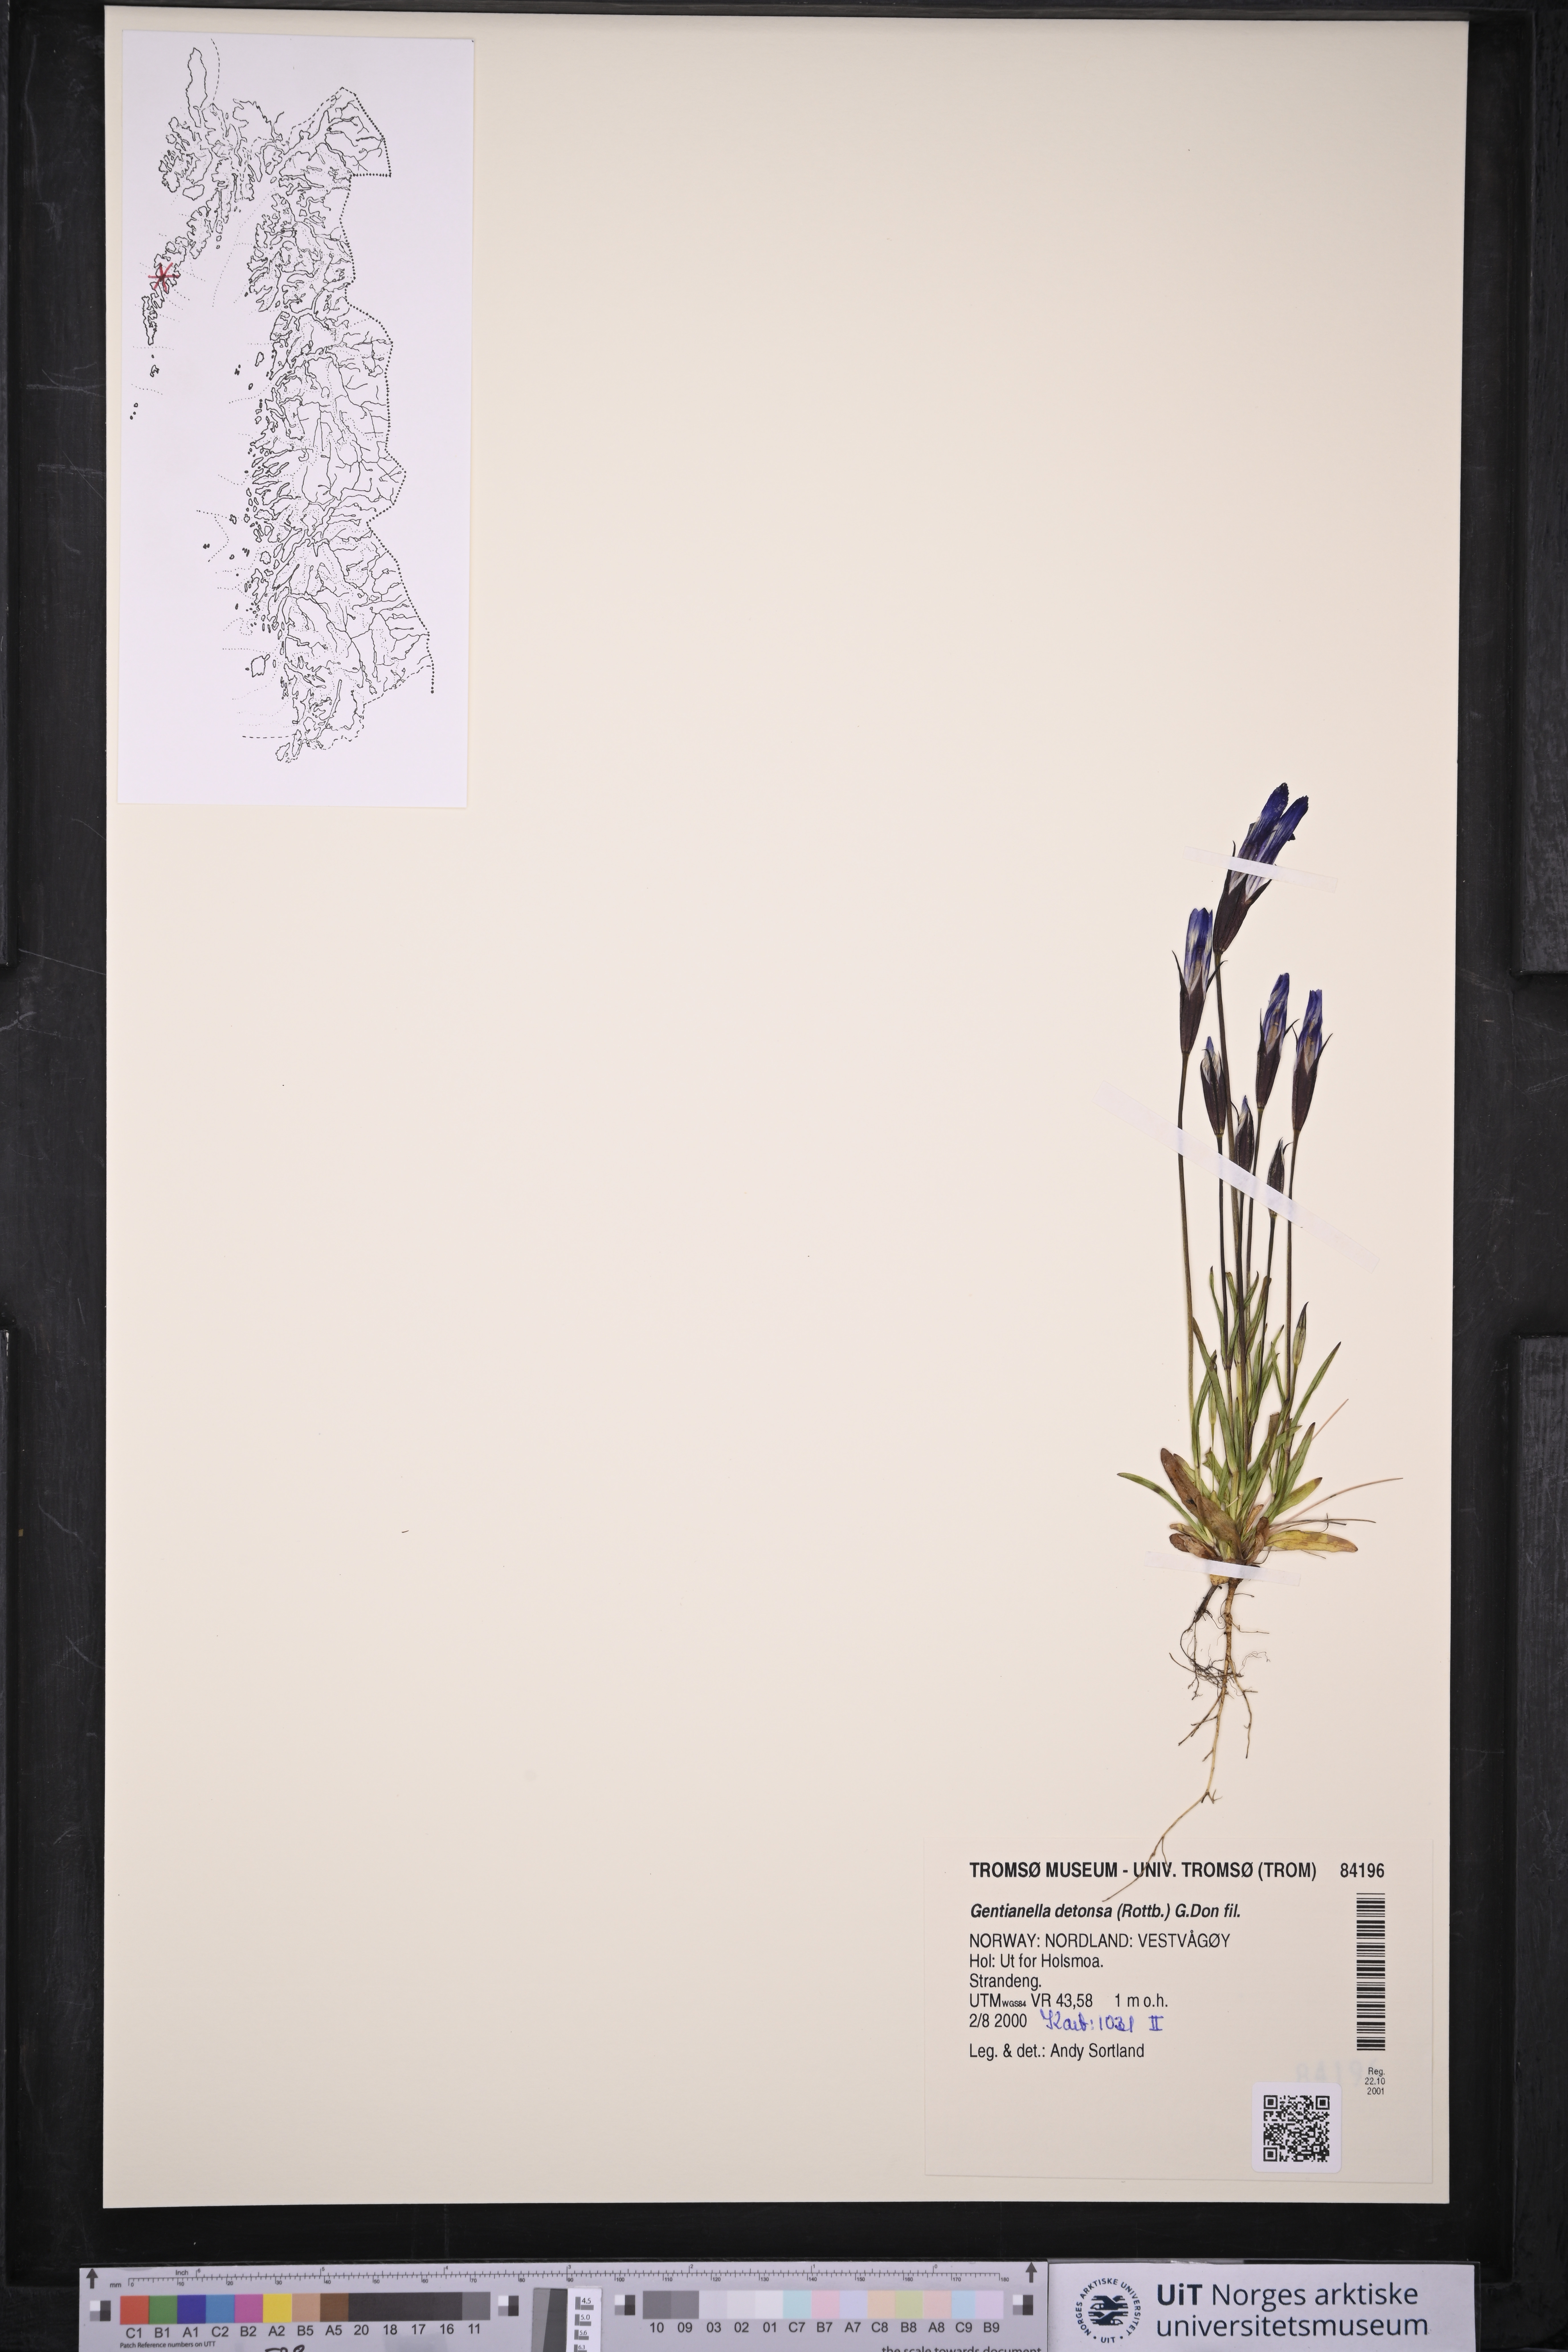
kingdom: Plantae
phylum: Tracheophyta
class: Magnoliopsida
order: Gentianales
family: Gentianaceae
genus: Gentianopsis
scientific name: Gentianopsis detonsa
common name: Fringed-gentian
